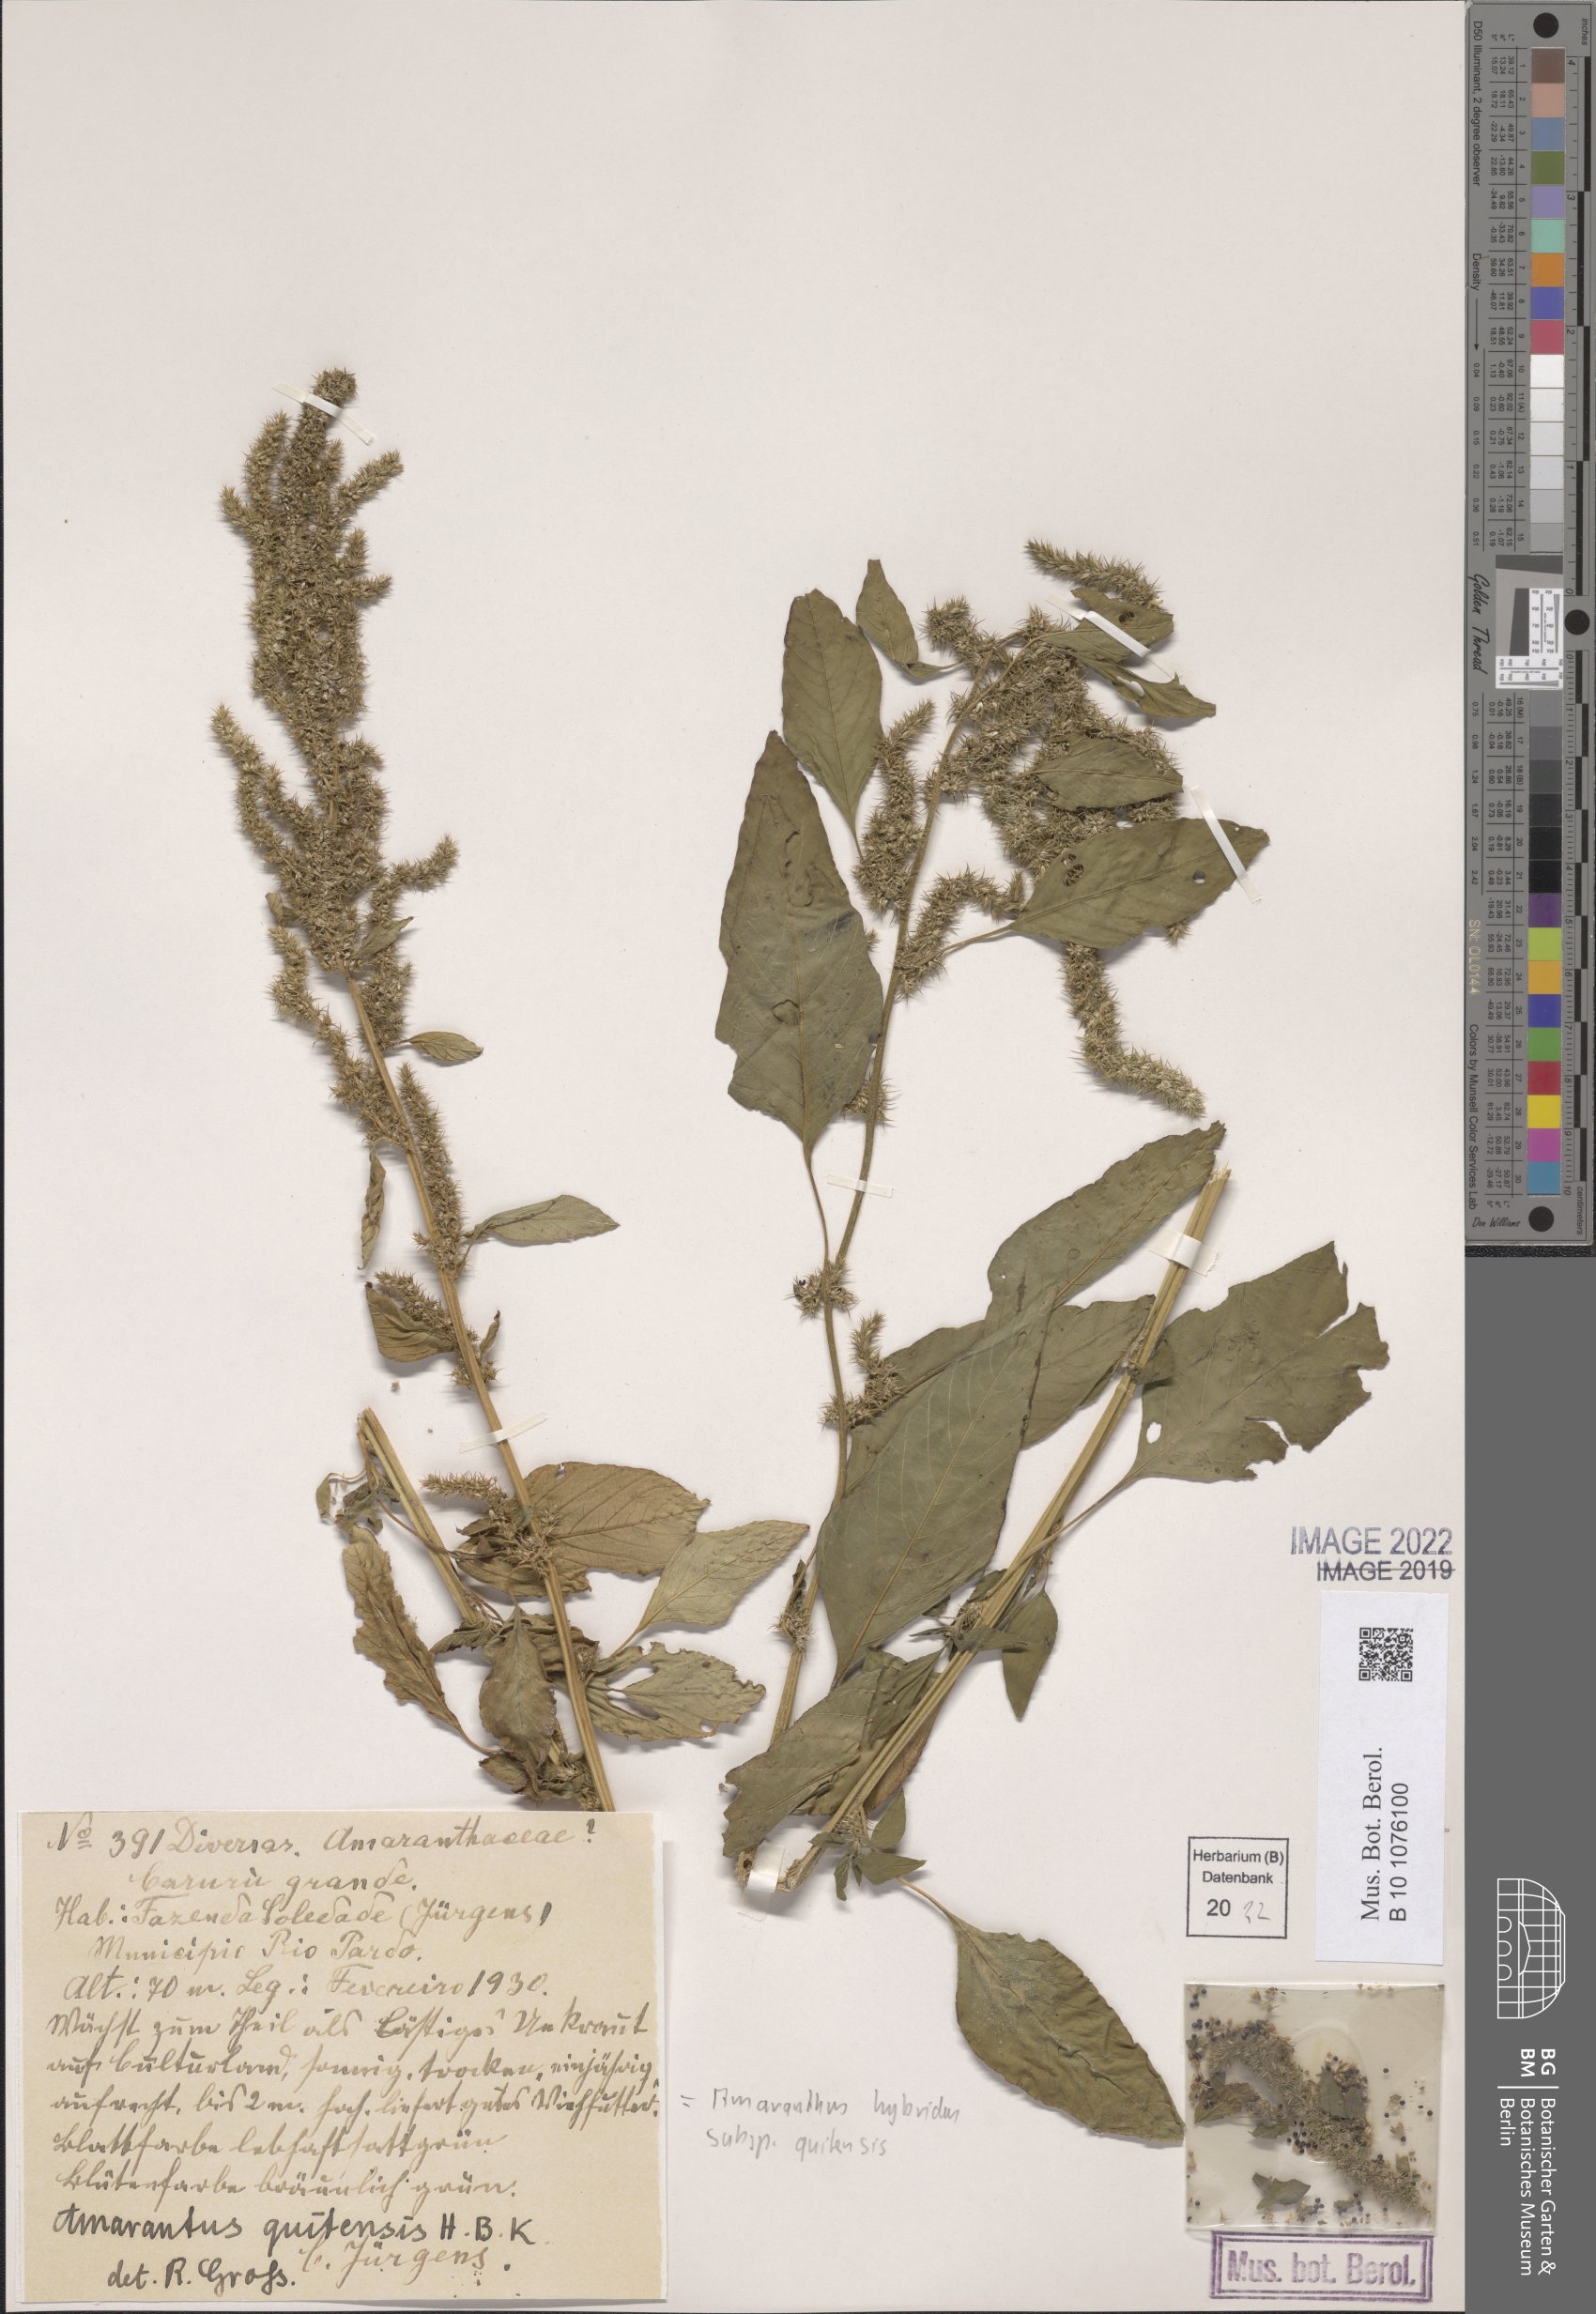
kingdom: Plantae
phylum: Tracheophyta
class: Magnoliopsida
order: Caryophyllales
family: Amaranthaceae
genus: Amaranthus
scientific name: Amaranthus quitensis
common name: Mucronate amaranth
